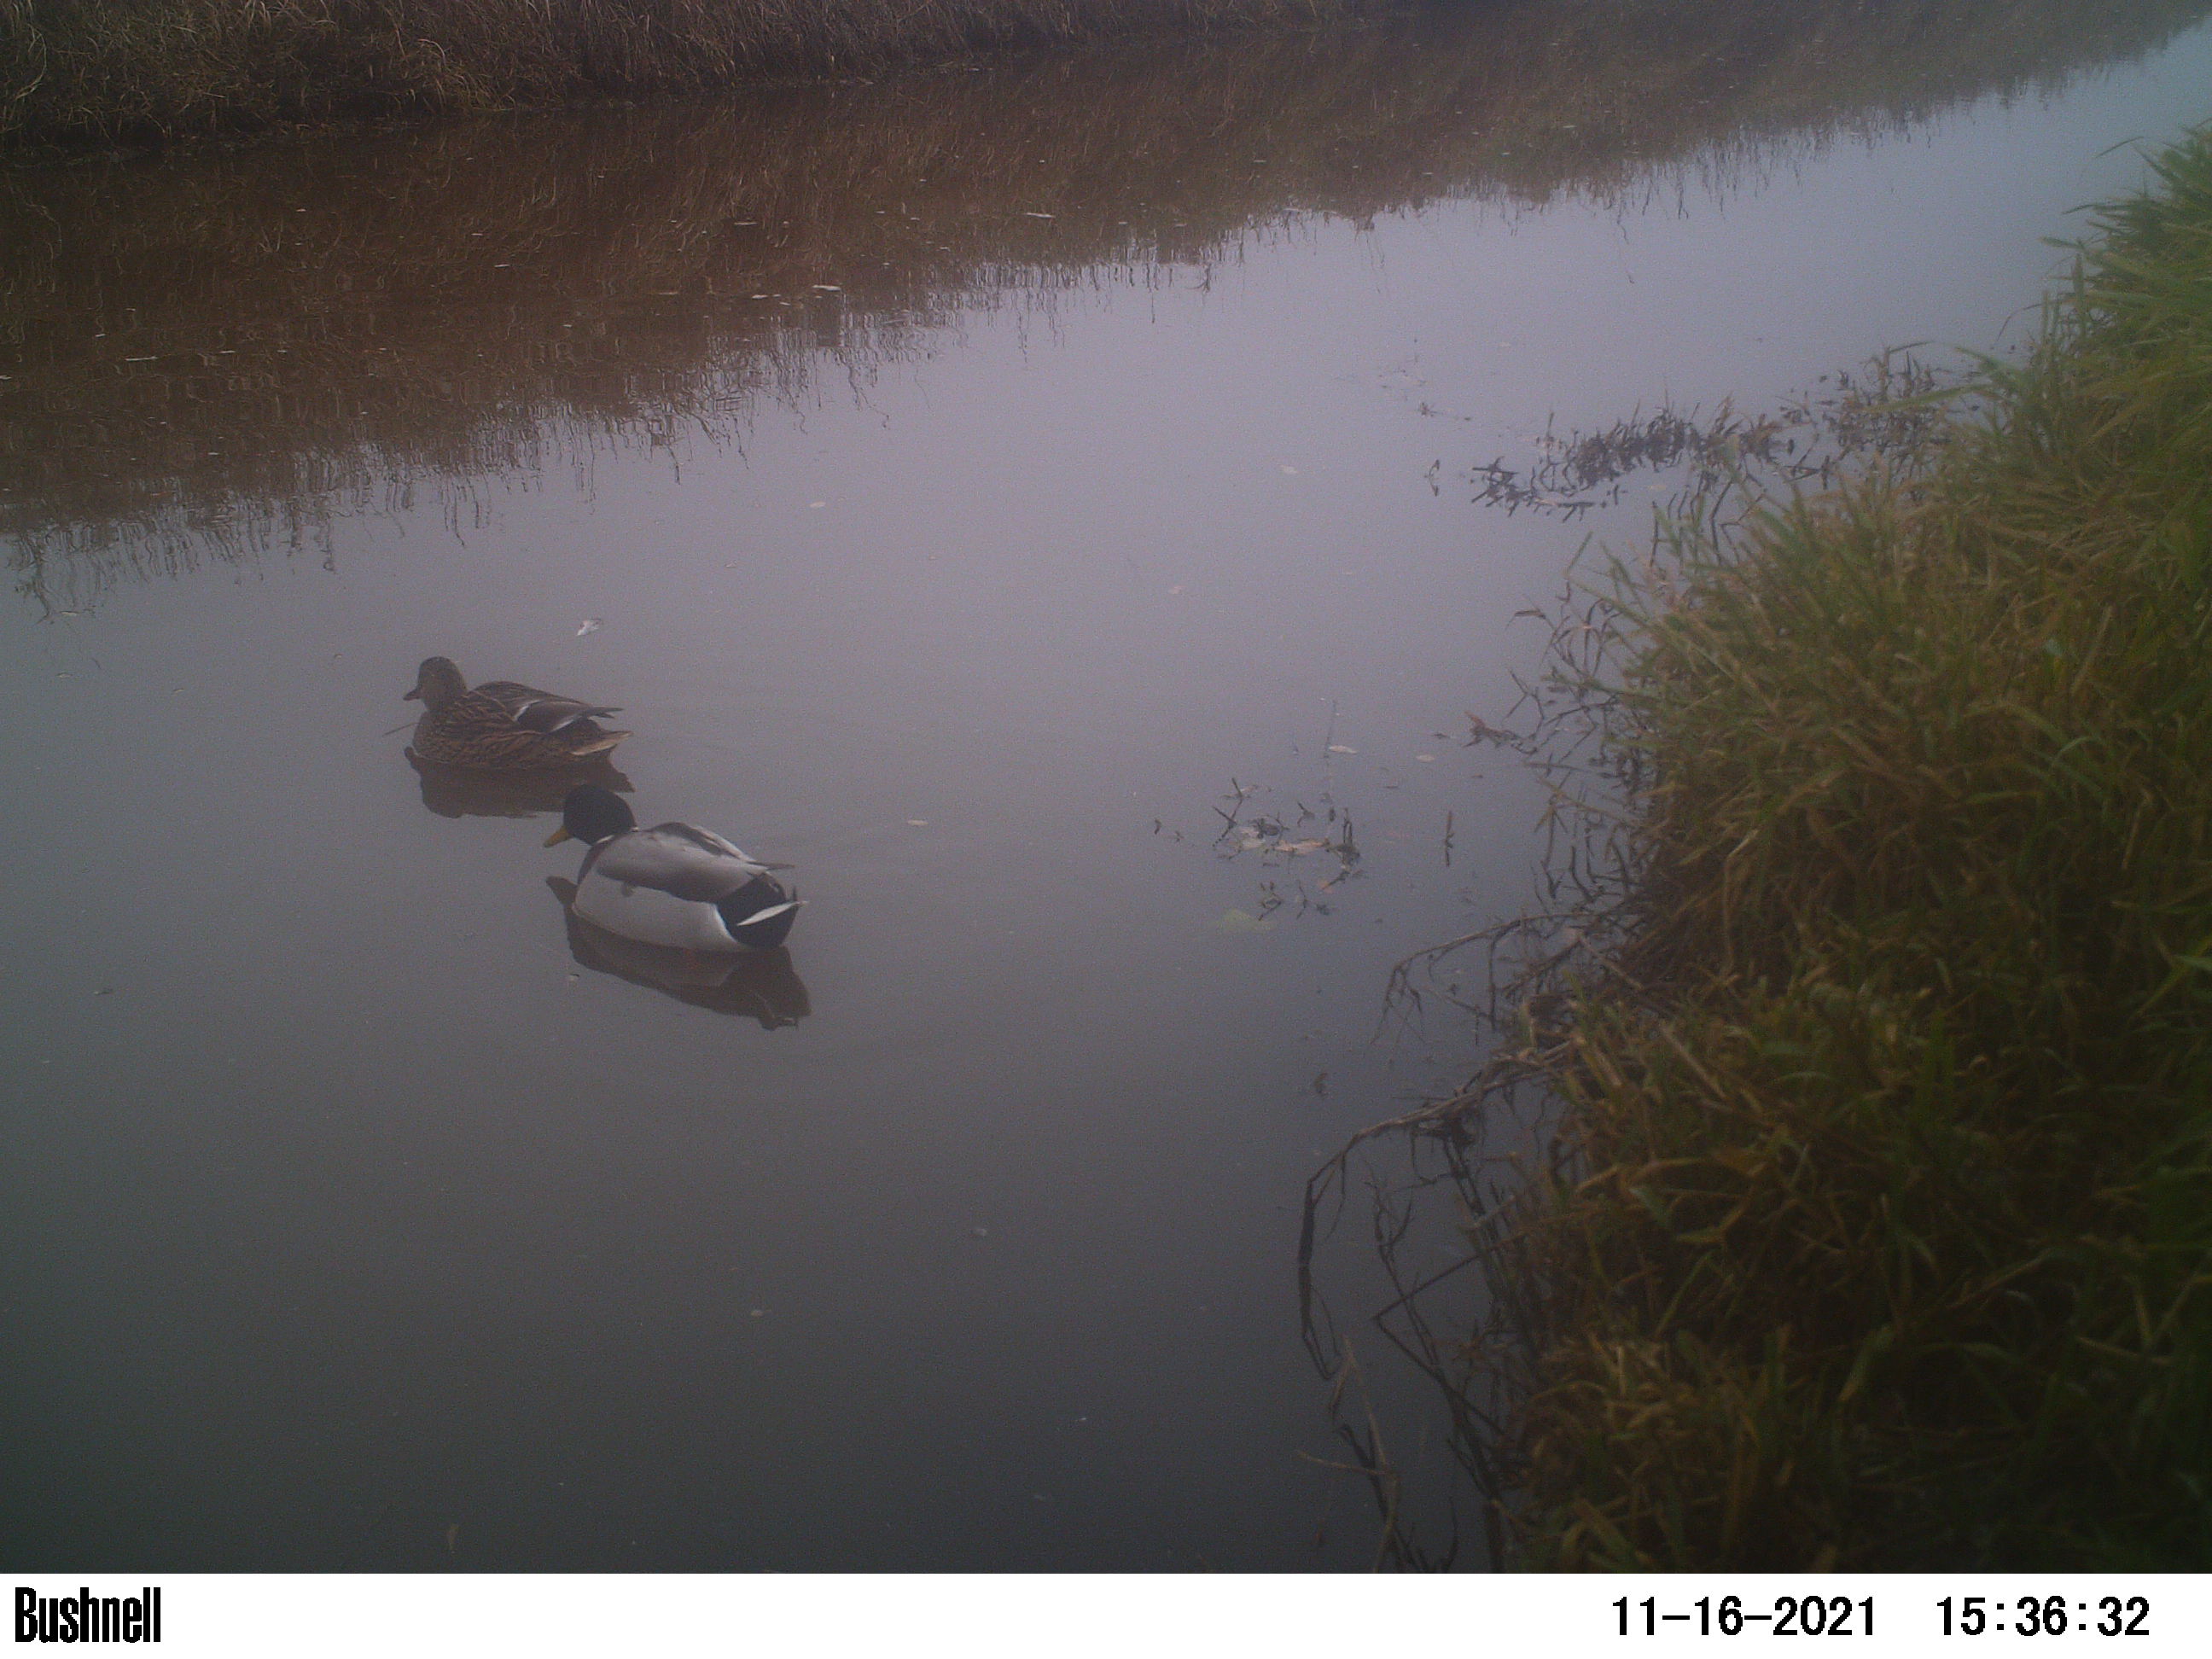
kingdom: Animalia
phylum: Chordata
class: Aves
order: Anseriformes
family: Anatidae
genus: Anas
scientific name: Anas
